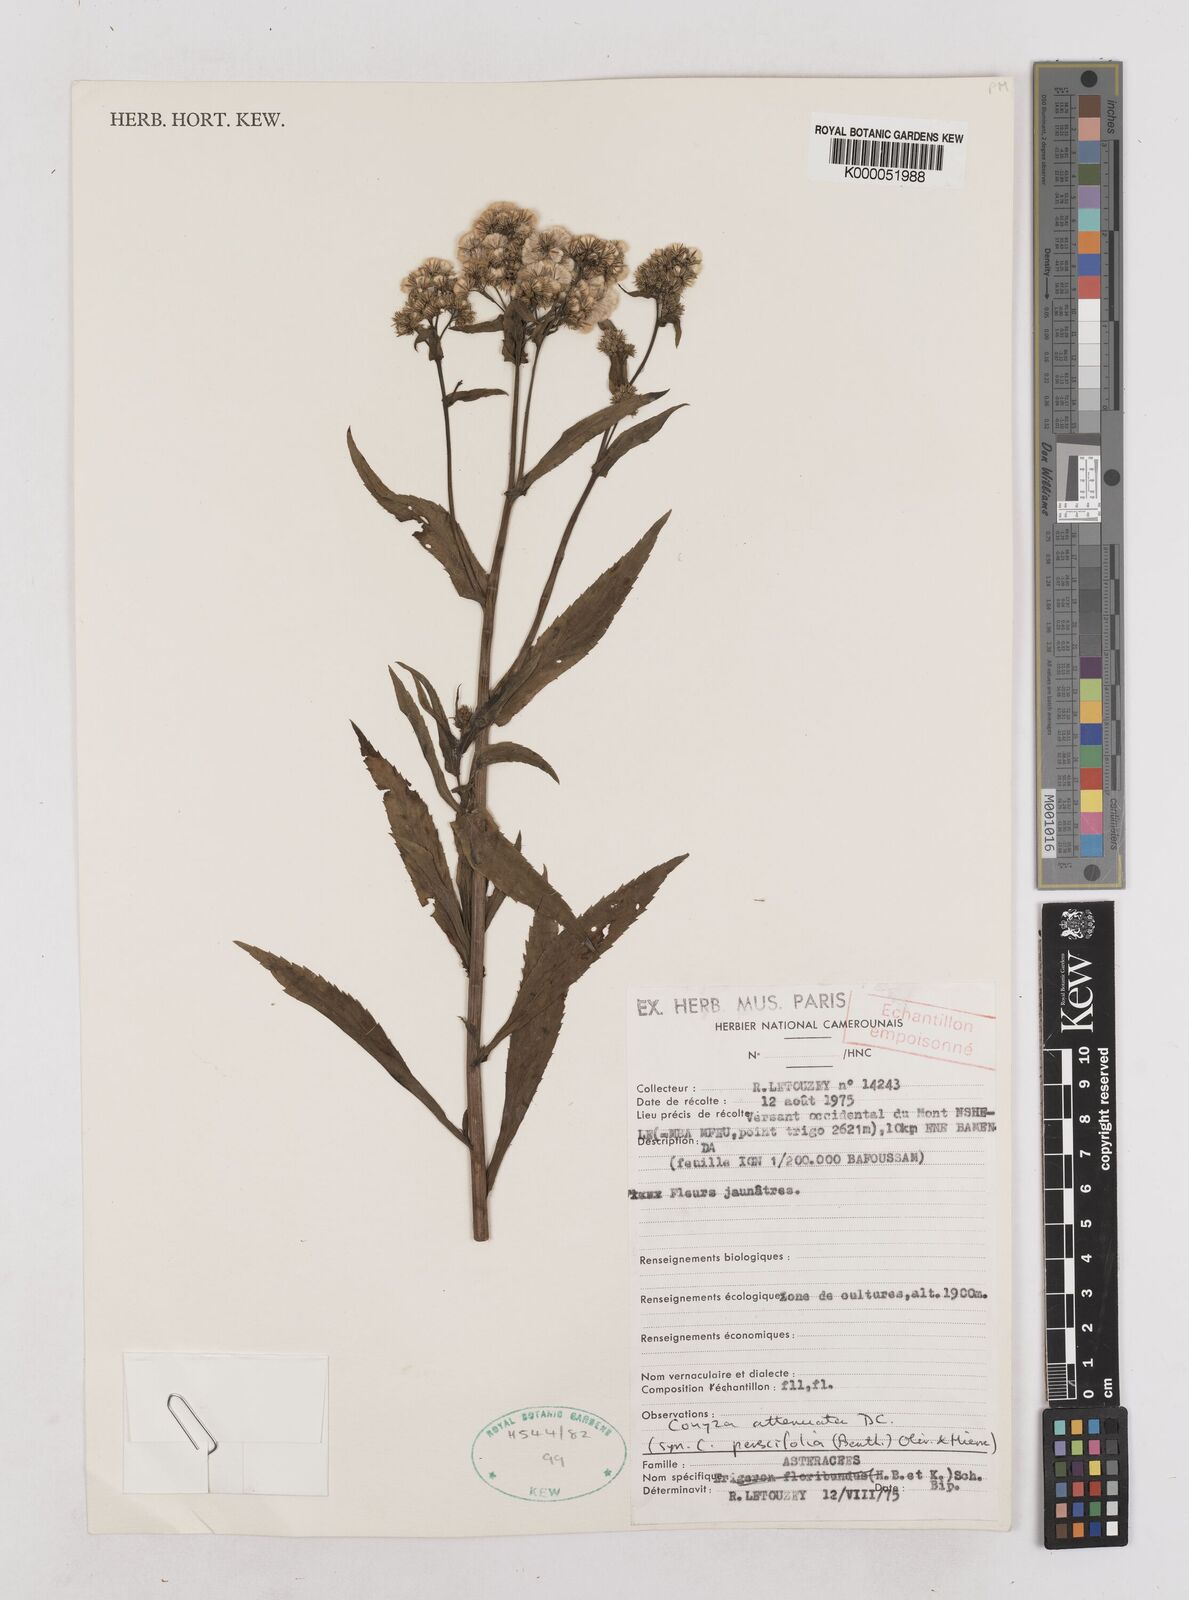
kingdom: Plantae
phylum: Tracheophyta
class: Magnoliopsida
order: Asterales
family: Asteraceae
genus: Nidorella
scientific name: Nidorella attenuata
